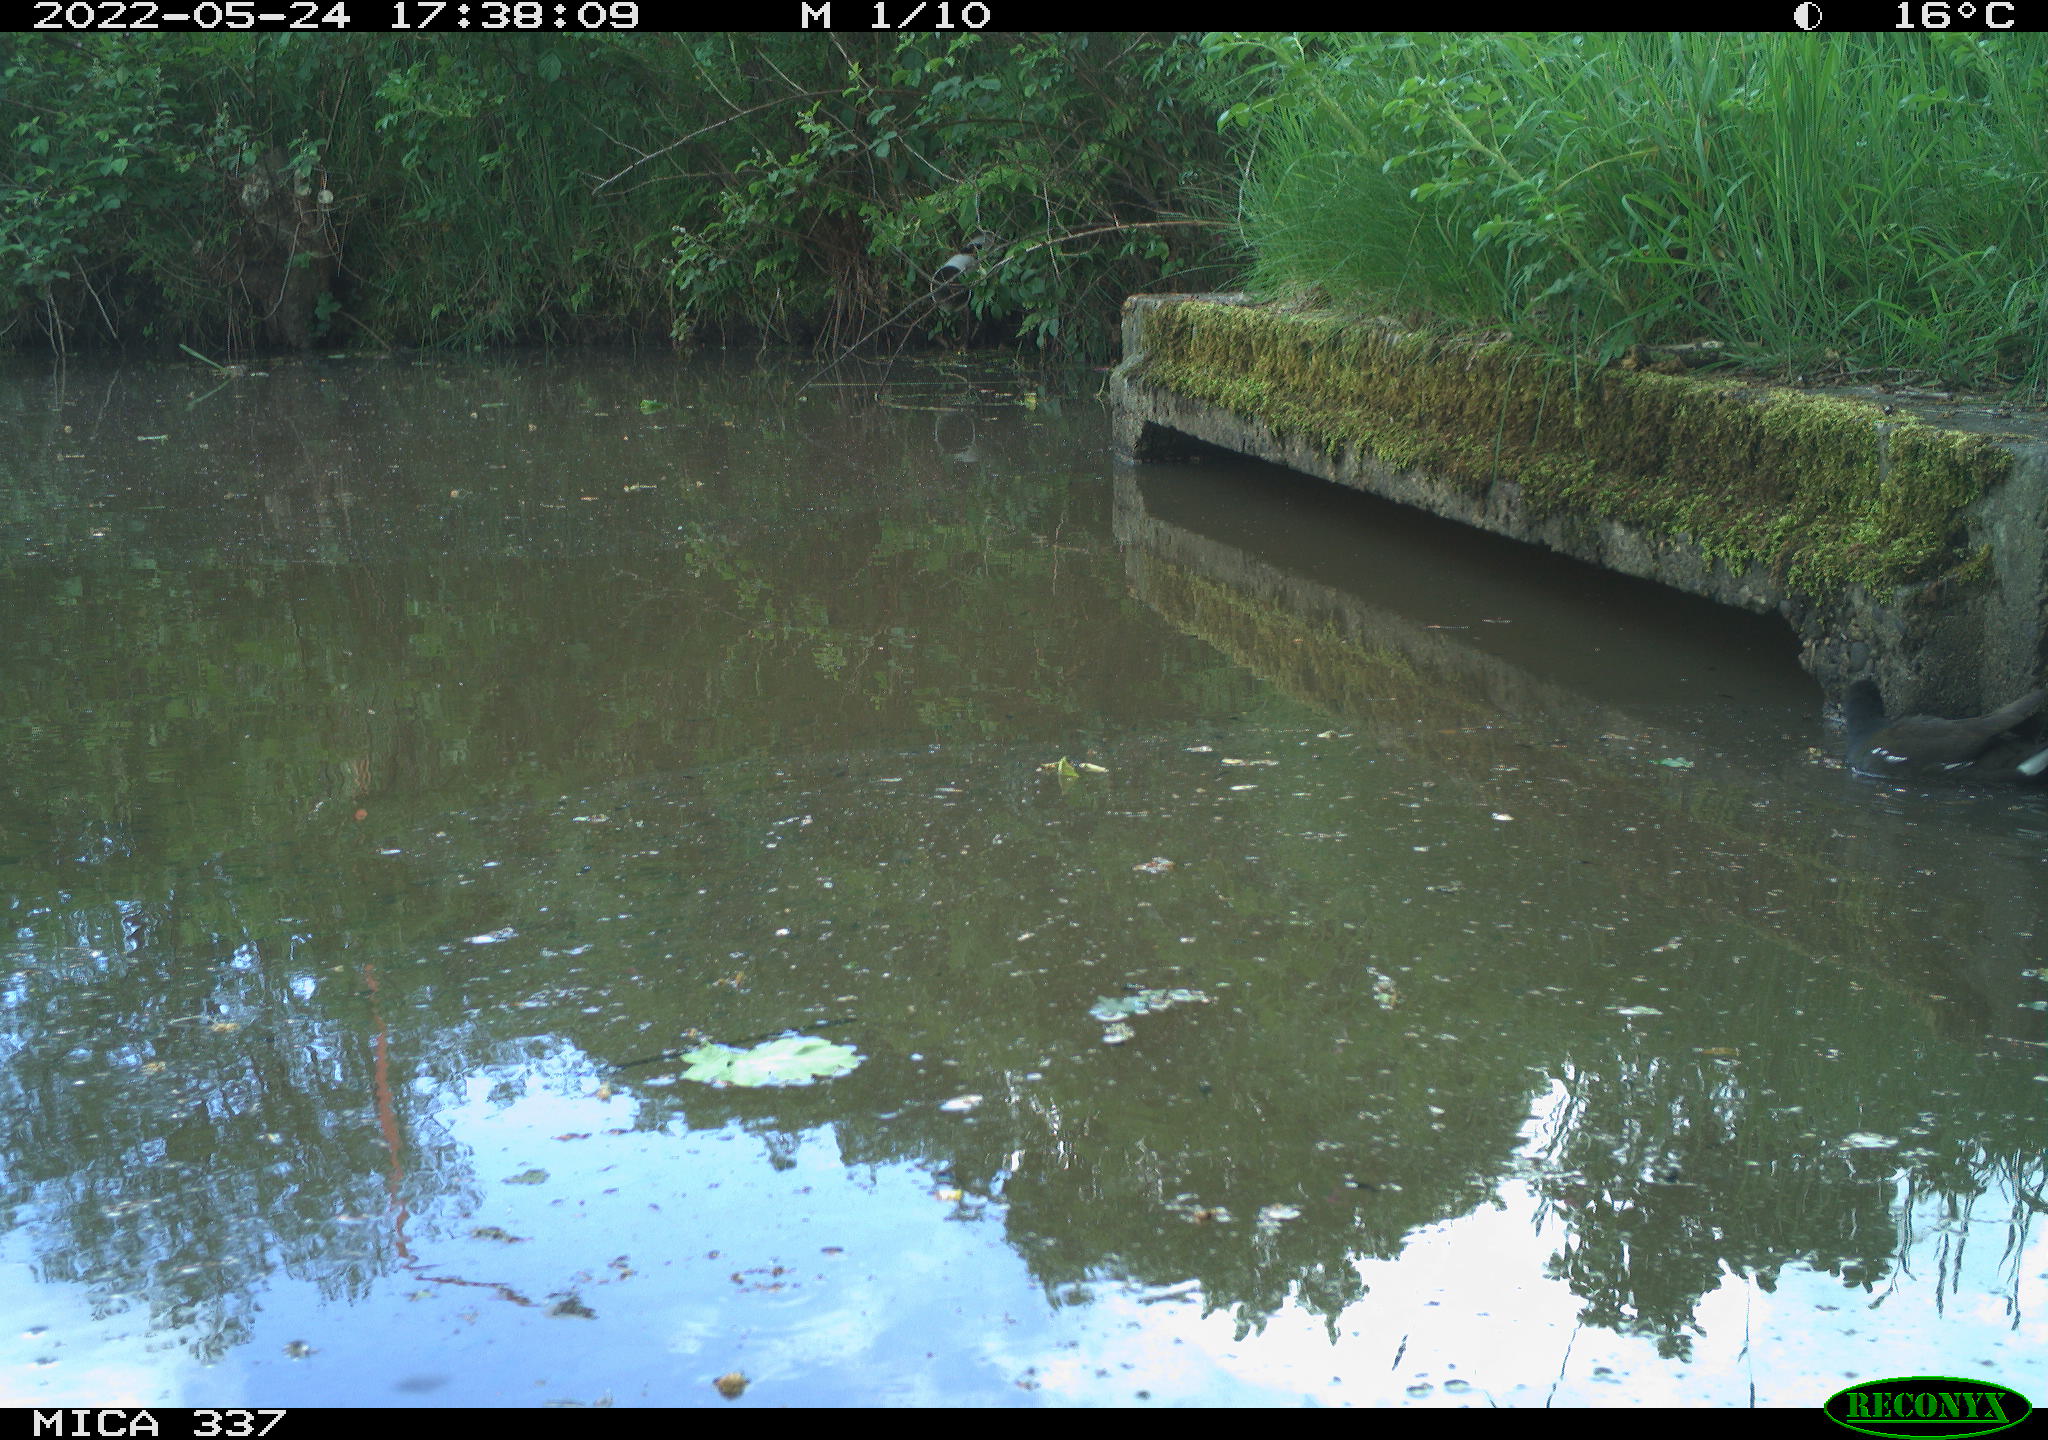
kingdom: Animalia
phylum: Chordata
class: Aves
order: Gruiformes
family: Rallidae
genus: Gallinula
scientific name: Gallinula chloropus
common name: Common moorhen
